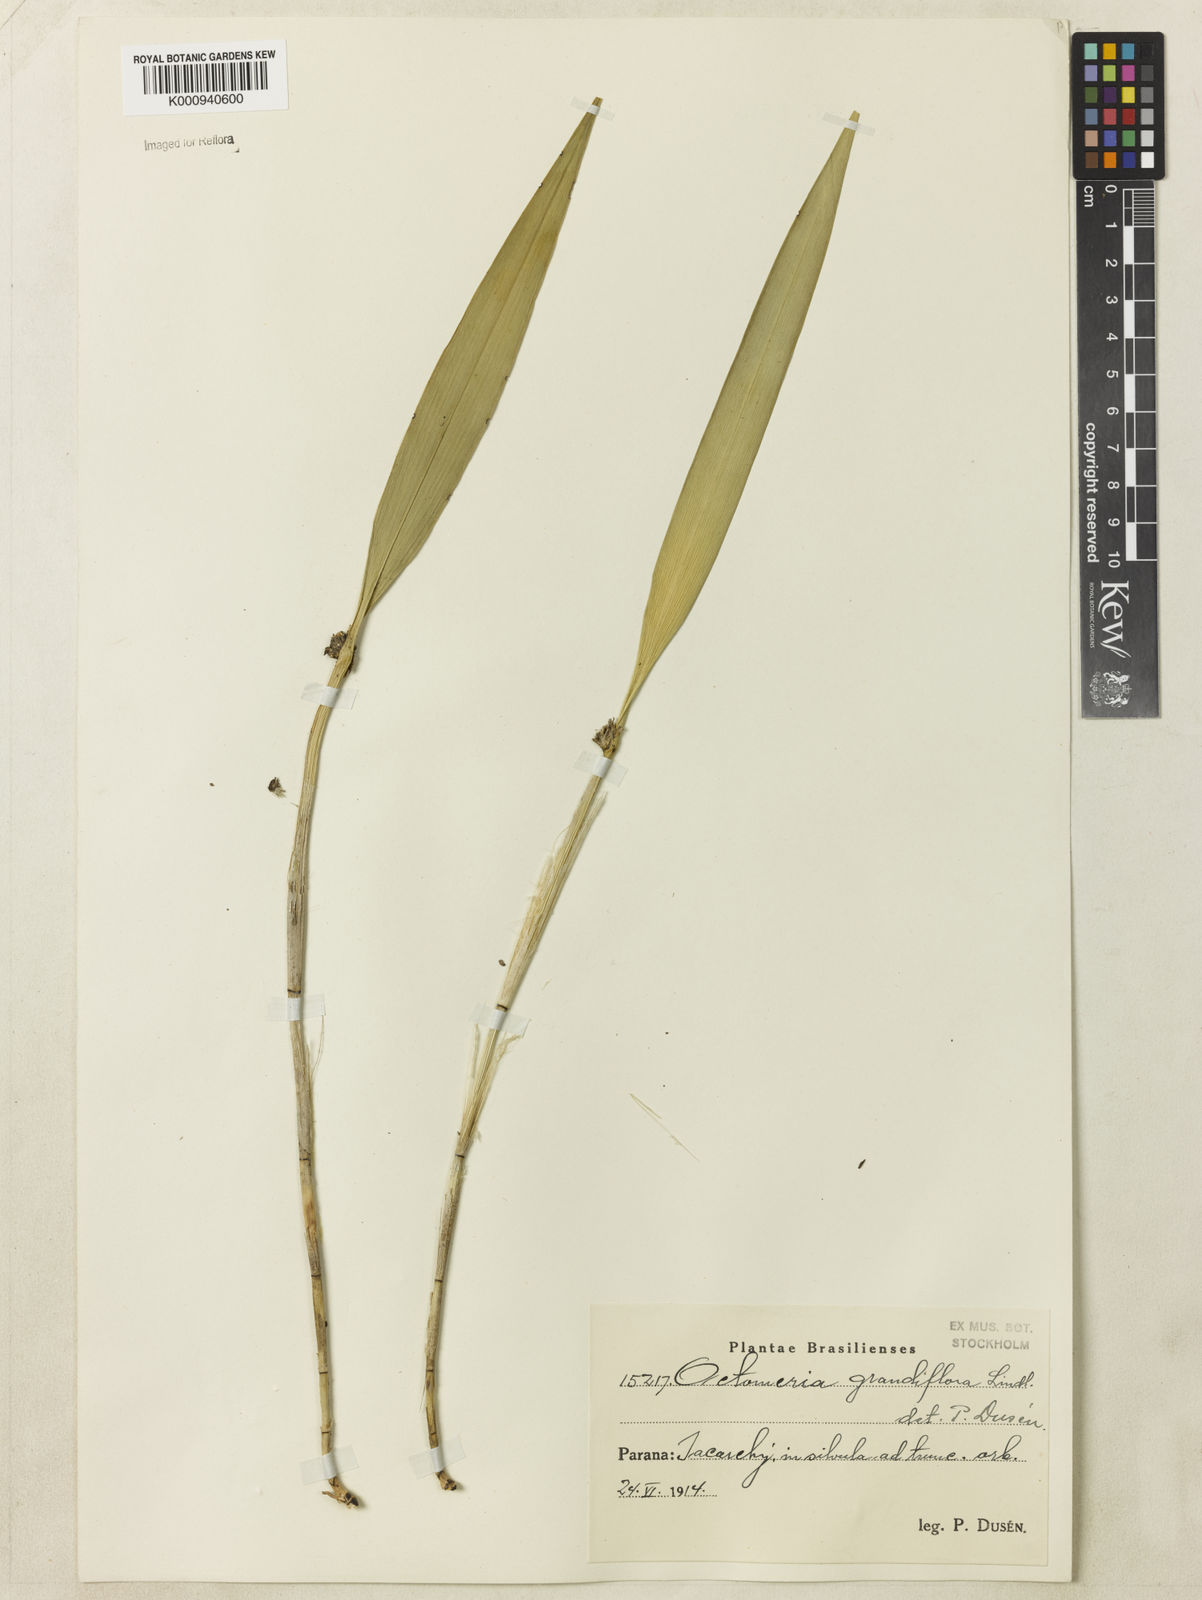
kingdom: Plantae
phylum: Tracheophyta
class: Liliopsida
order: Asparagales
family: Orchidaceae
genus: Octomeria
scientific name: Octomeria grandiflora
